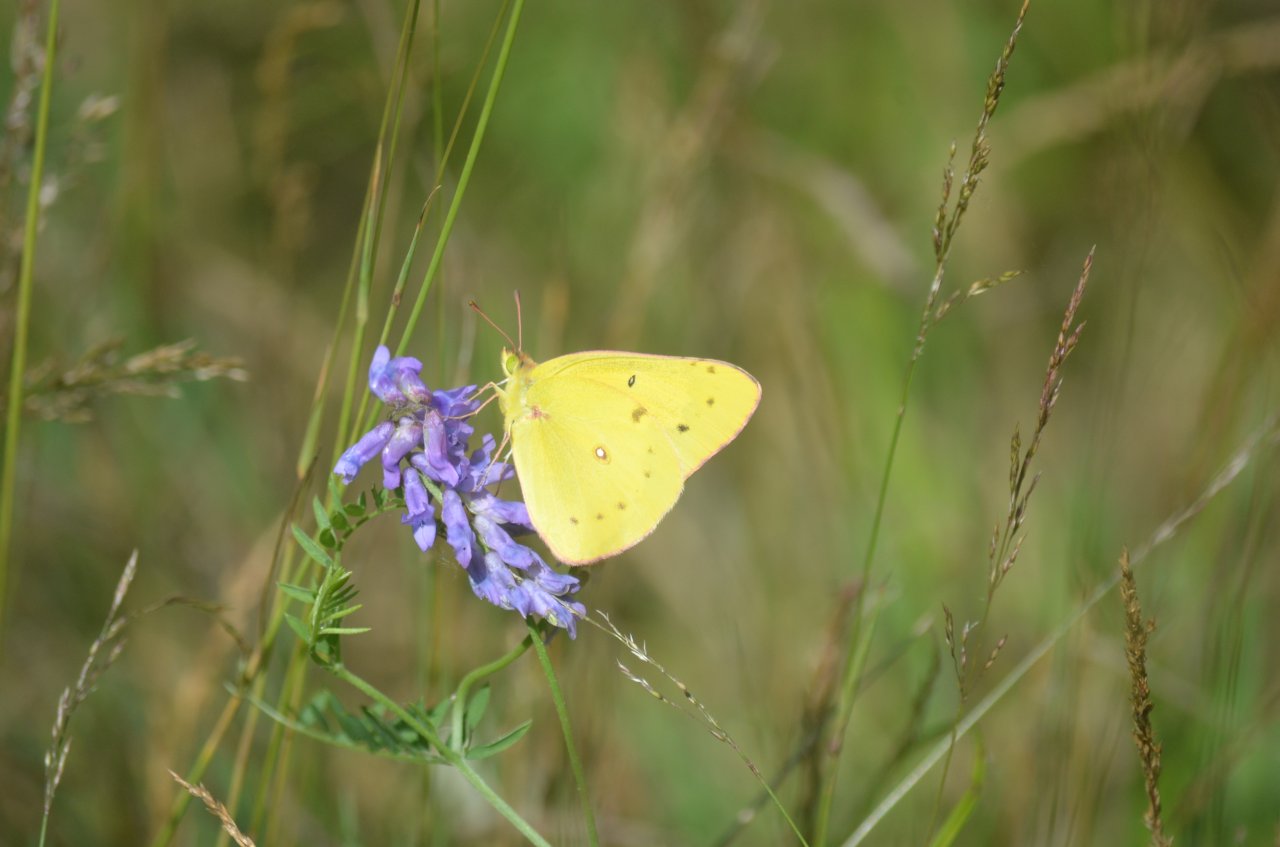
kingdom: Animalia
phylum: Arthropoda
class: Insecta
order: Lepidoptera
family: Pieridae
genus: Colias
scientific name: Colias philodice
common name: Clouded Sulphur
